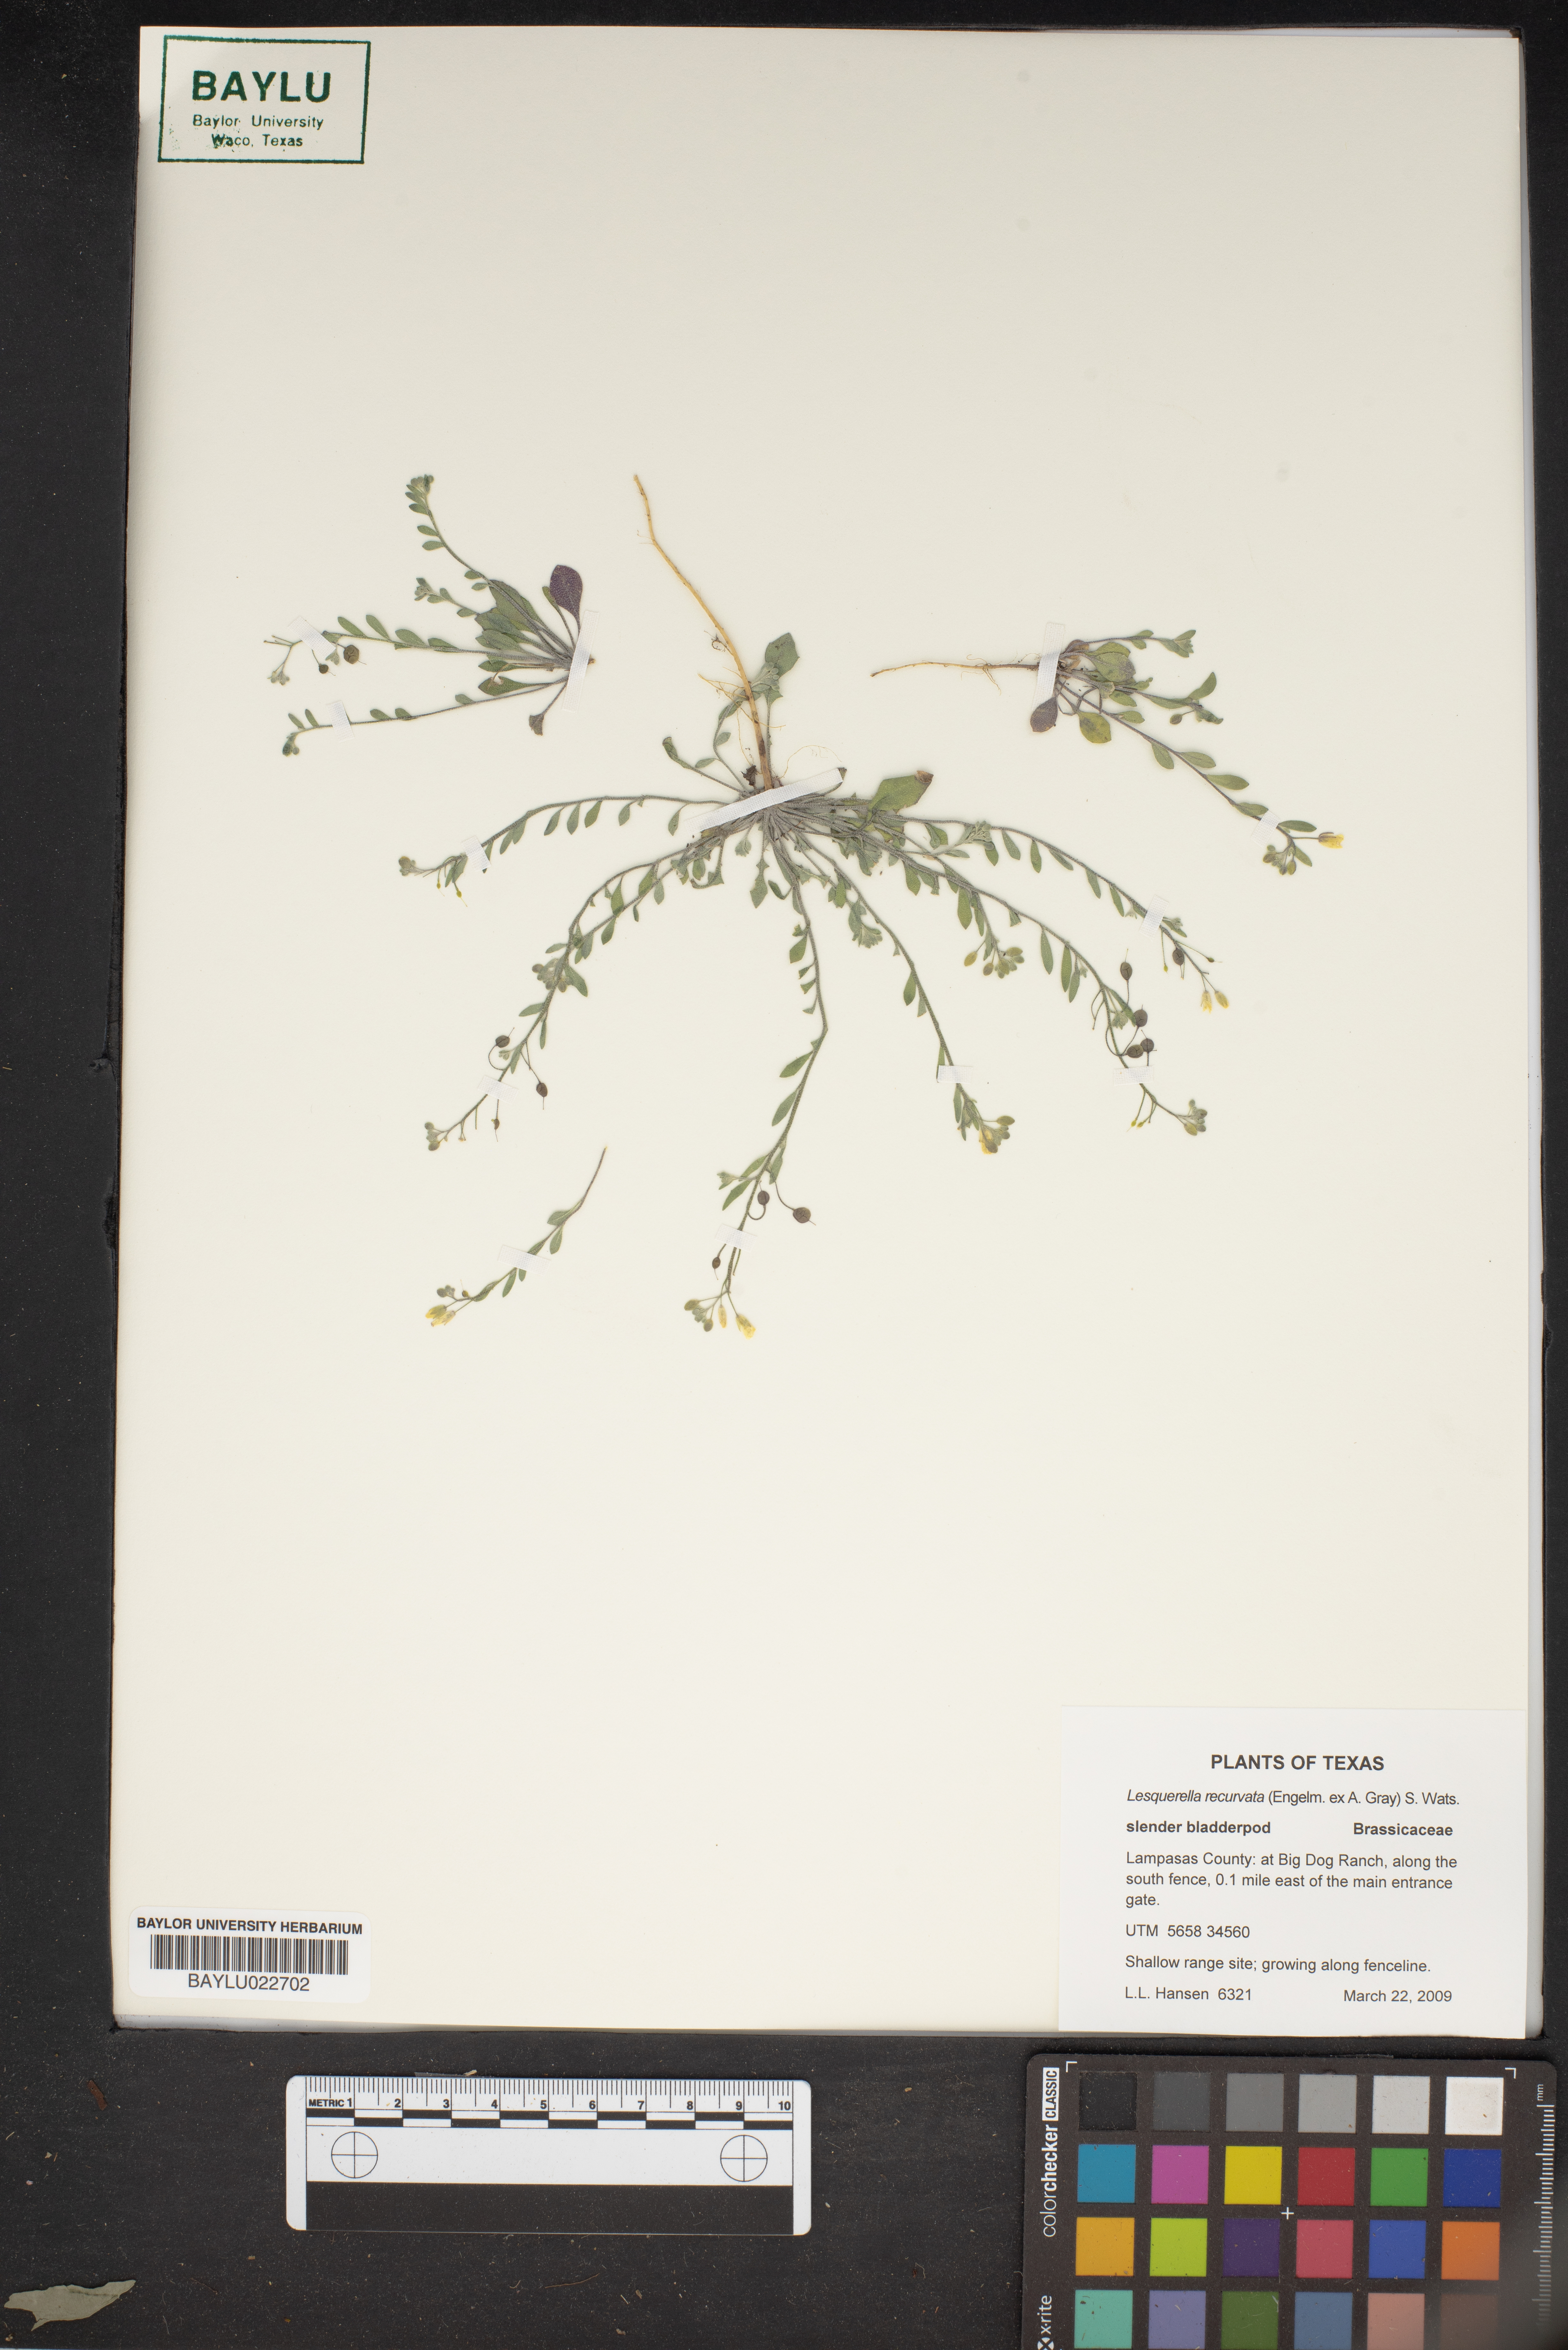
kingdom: Plantae
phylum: Tracheophyta
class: Magnoliopsida
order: Brassicales
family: Brassicaceae
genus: Physaria
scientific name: Physaria recurvata
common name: Gaslight bladderpod
